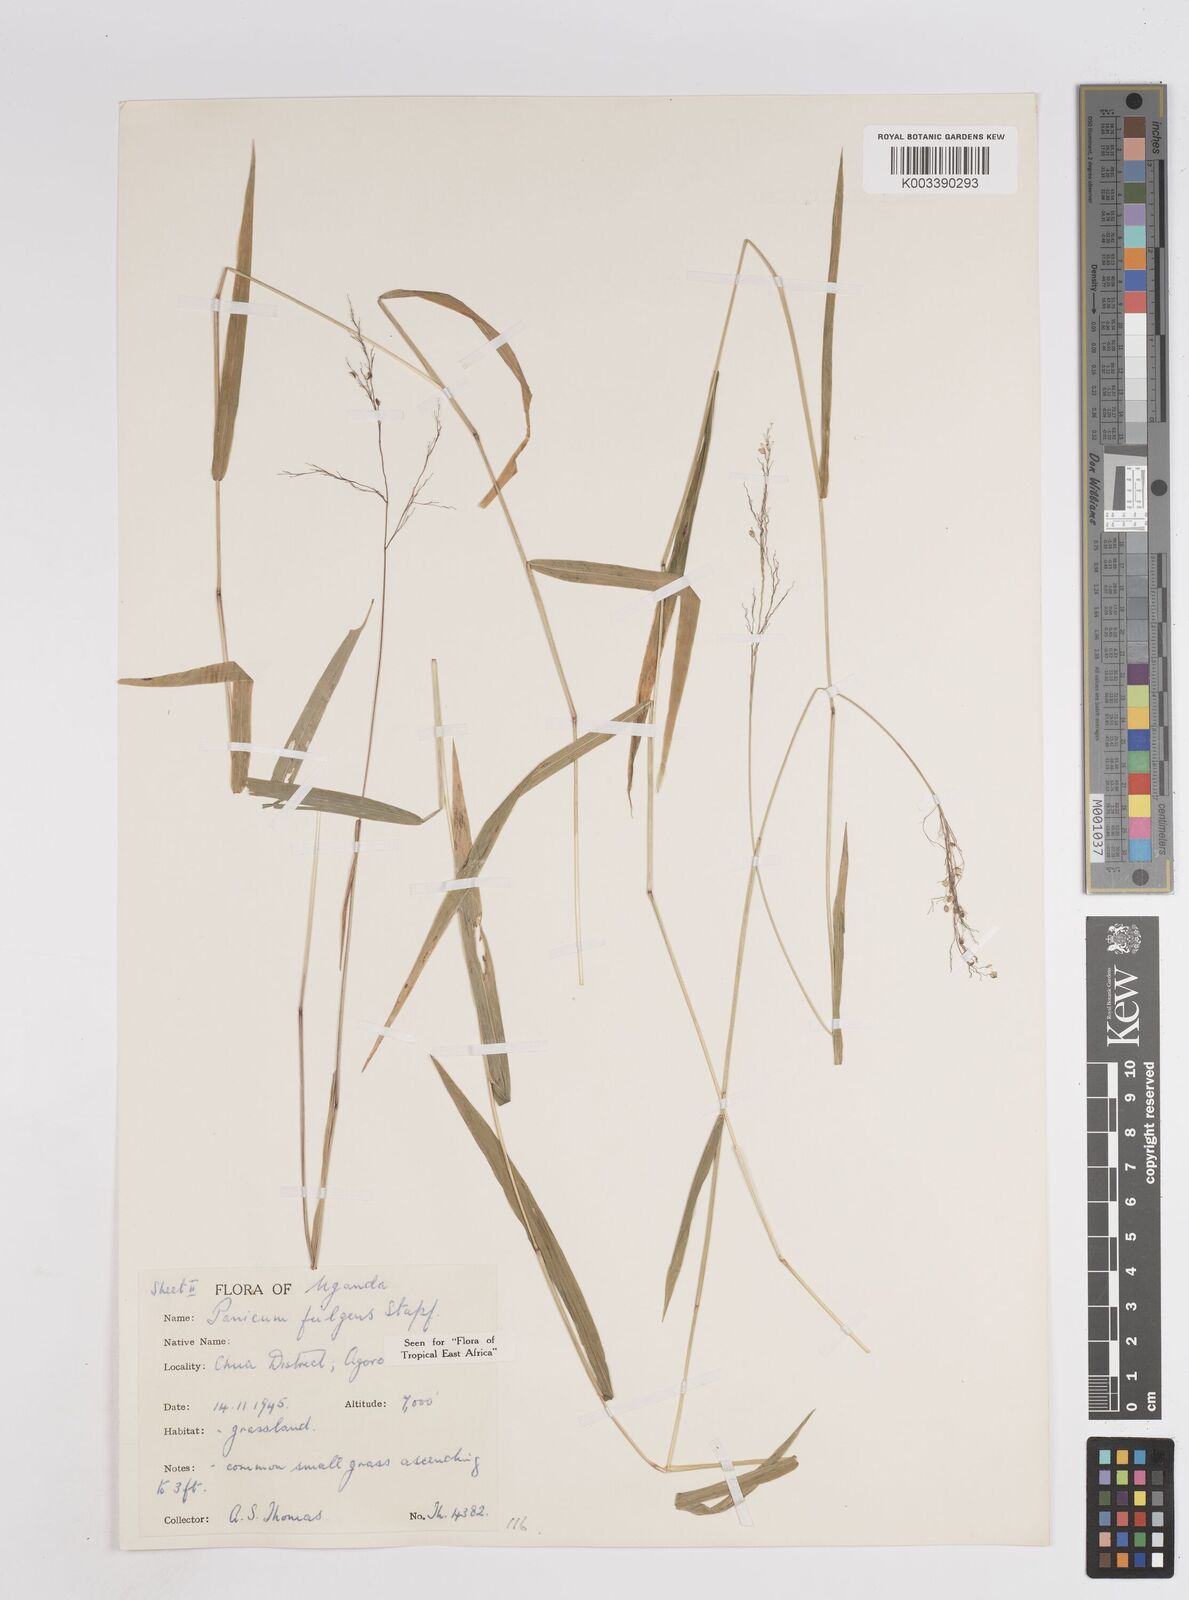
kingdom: Plantae
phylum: Tracheophyta
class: Liliopsida
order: Poales
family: Poaceae
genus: Trichanthecium
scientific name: Trichanthecium nervatum
